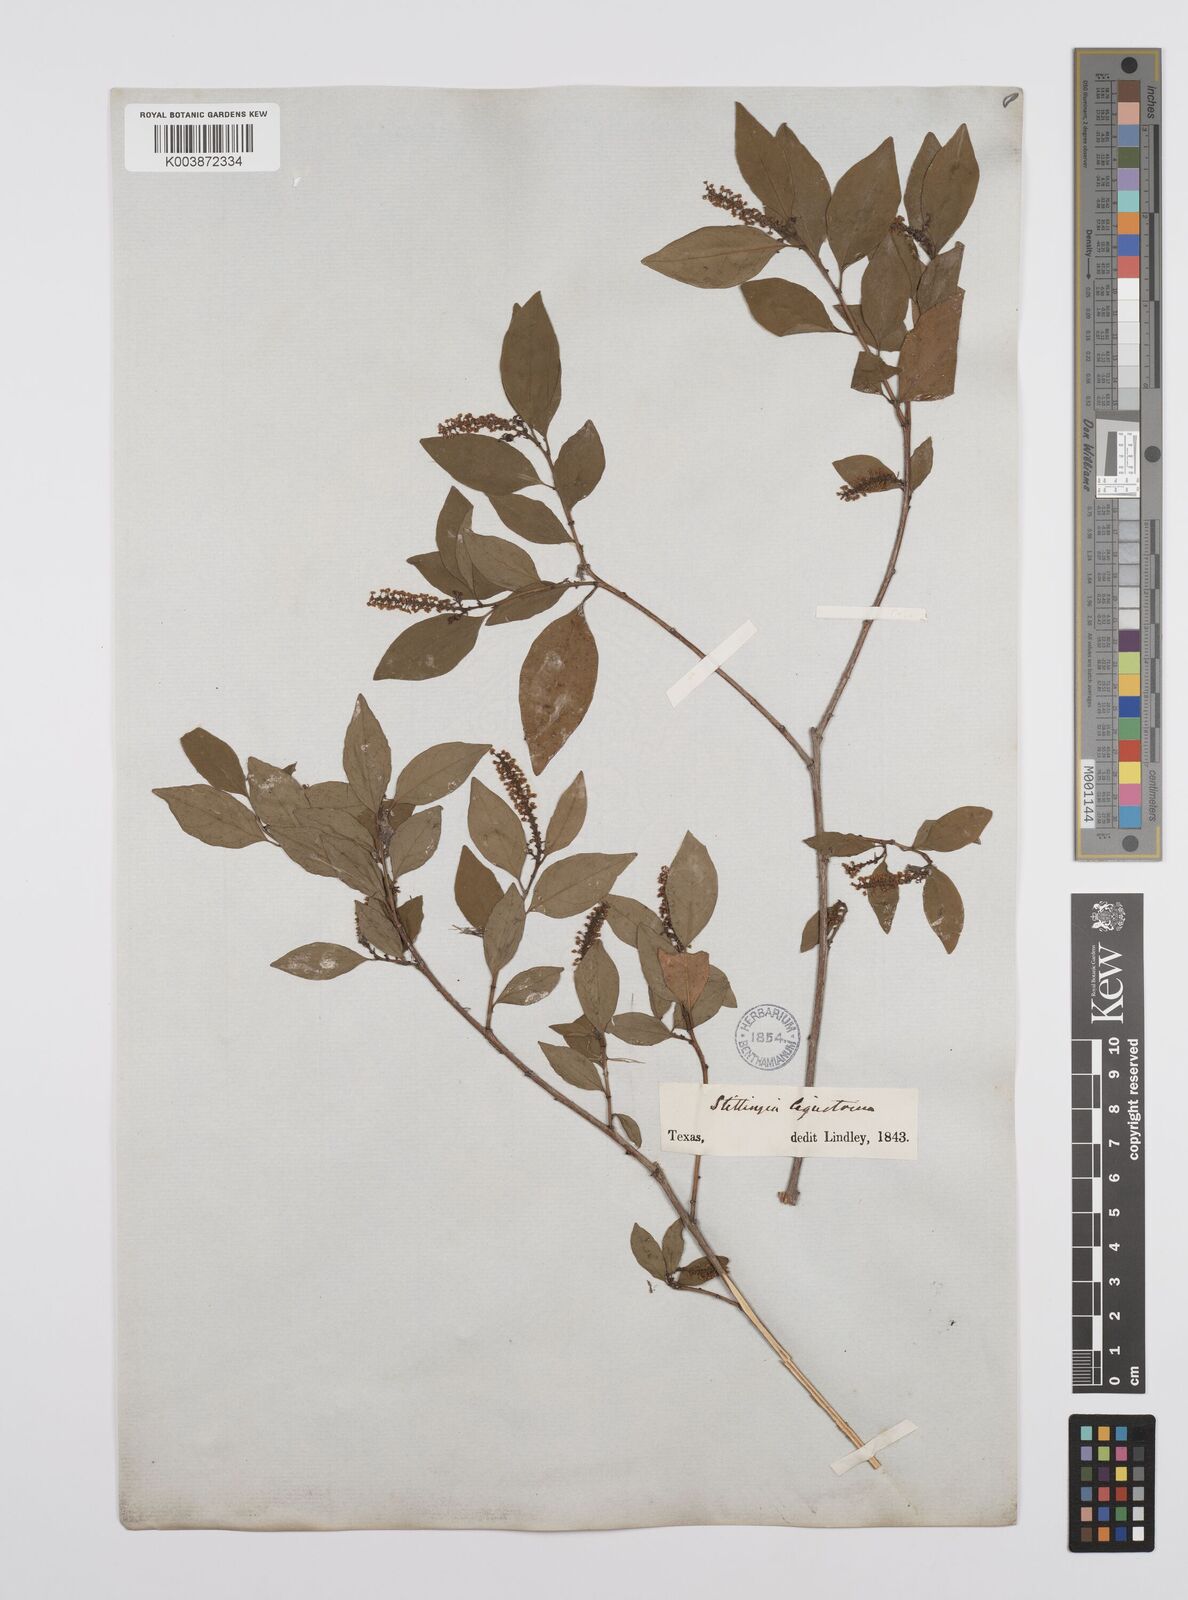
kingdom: Plantae
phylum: Tracheophyta
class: Magnoliopsida
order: Malpighiales
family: Euphorbiaceae
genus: Ditrysinia
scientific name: Ditrysinia fruticosa
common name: Gulf sebastian-bush
